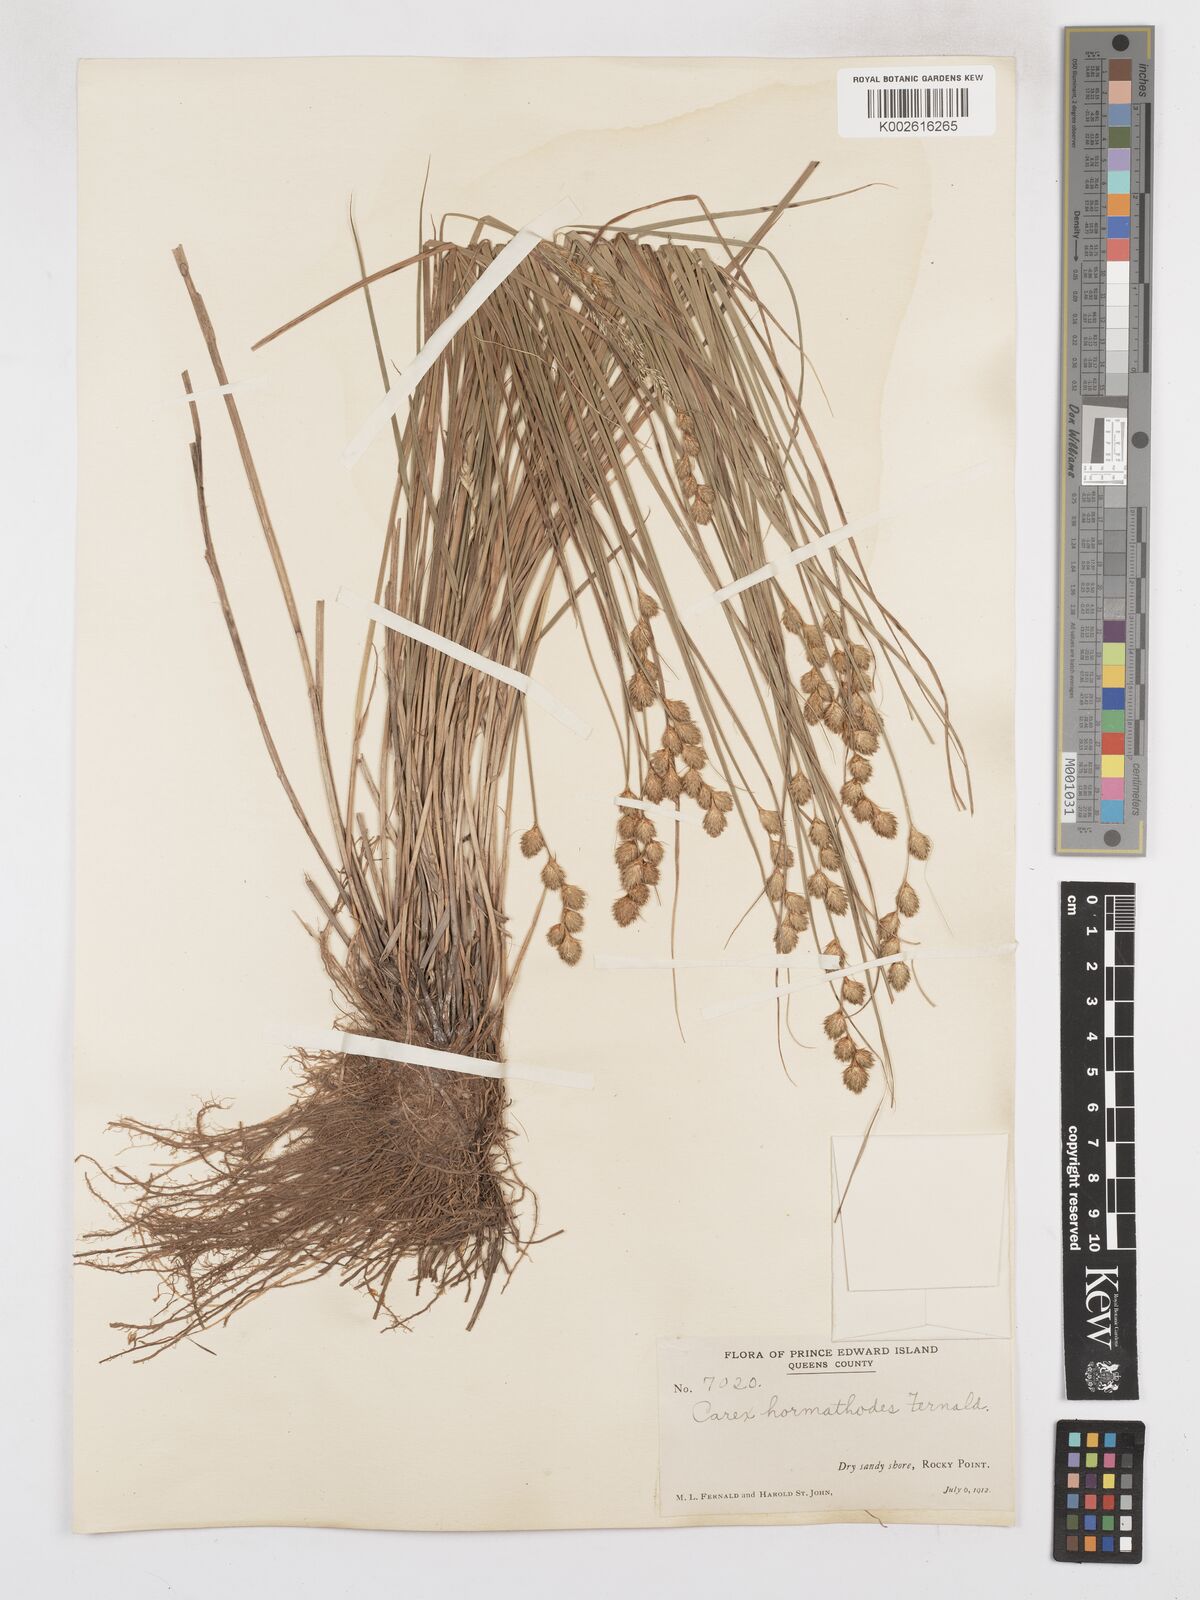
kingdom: Plantae
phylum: Tracheophyta
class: Liliopsida
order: Poales
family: Cyperaceae
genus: Carex
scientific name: Carex hormathodes
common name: Marsh straw sedge
